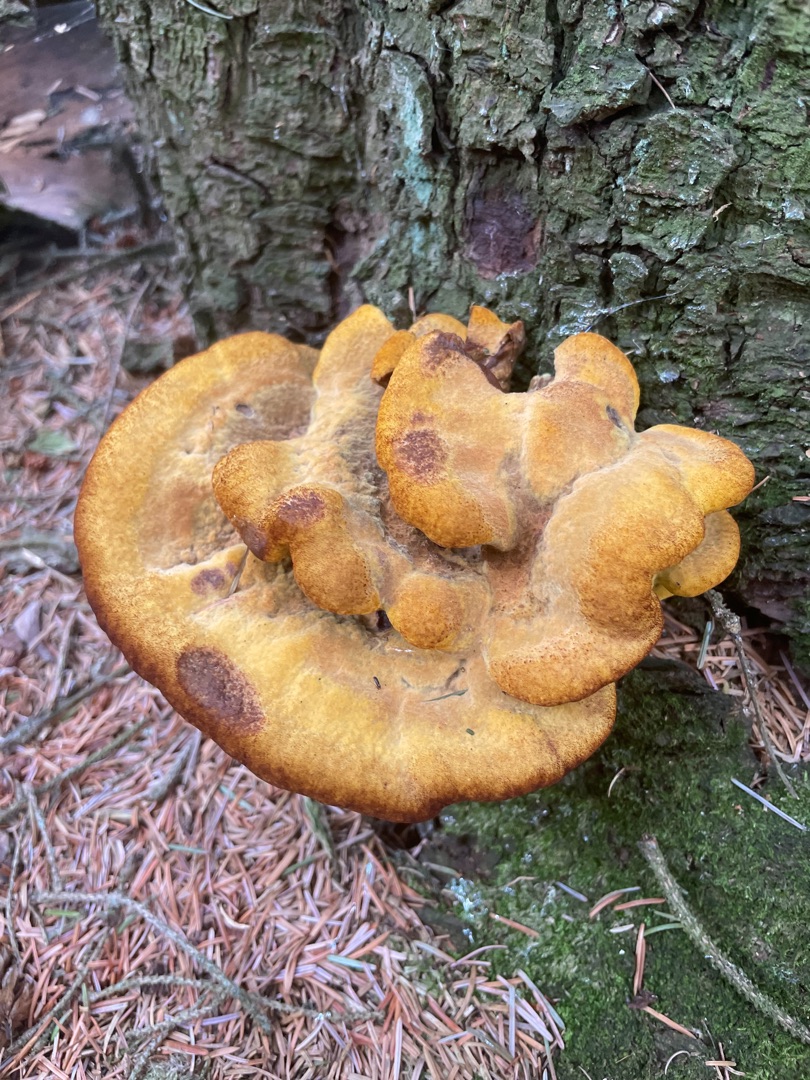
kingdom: Fungi
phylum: Basidiomycota
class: Agaricomycetes
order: Polyporales
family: Laetiporaceae
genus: Phaeolus
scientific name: Phaeolus schweinitzii
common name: Brunporesvamp
